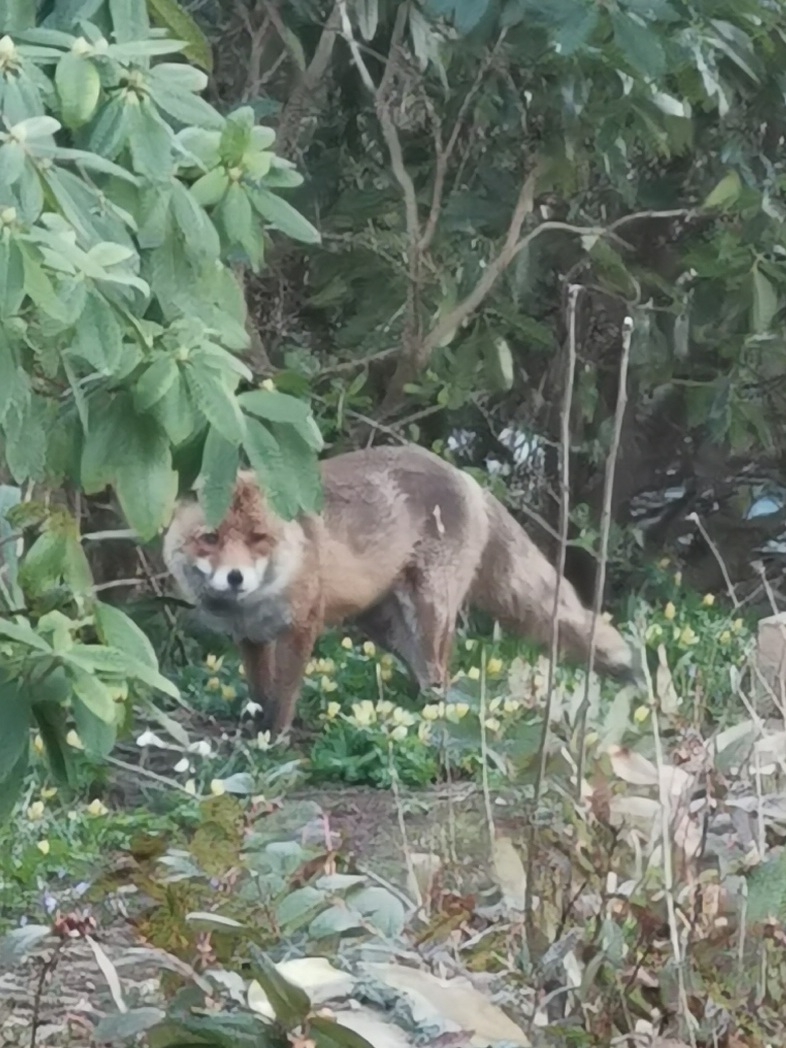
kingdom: Animalia
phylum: Chordata
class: Mammalia
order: Carnivora
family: Canidae
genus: Vulpes
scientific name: Vulpes vulpes
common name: Ræv
